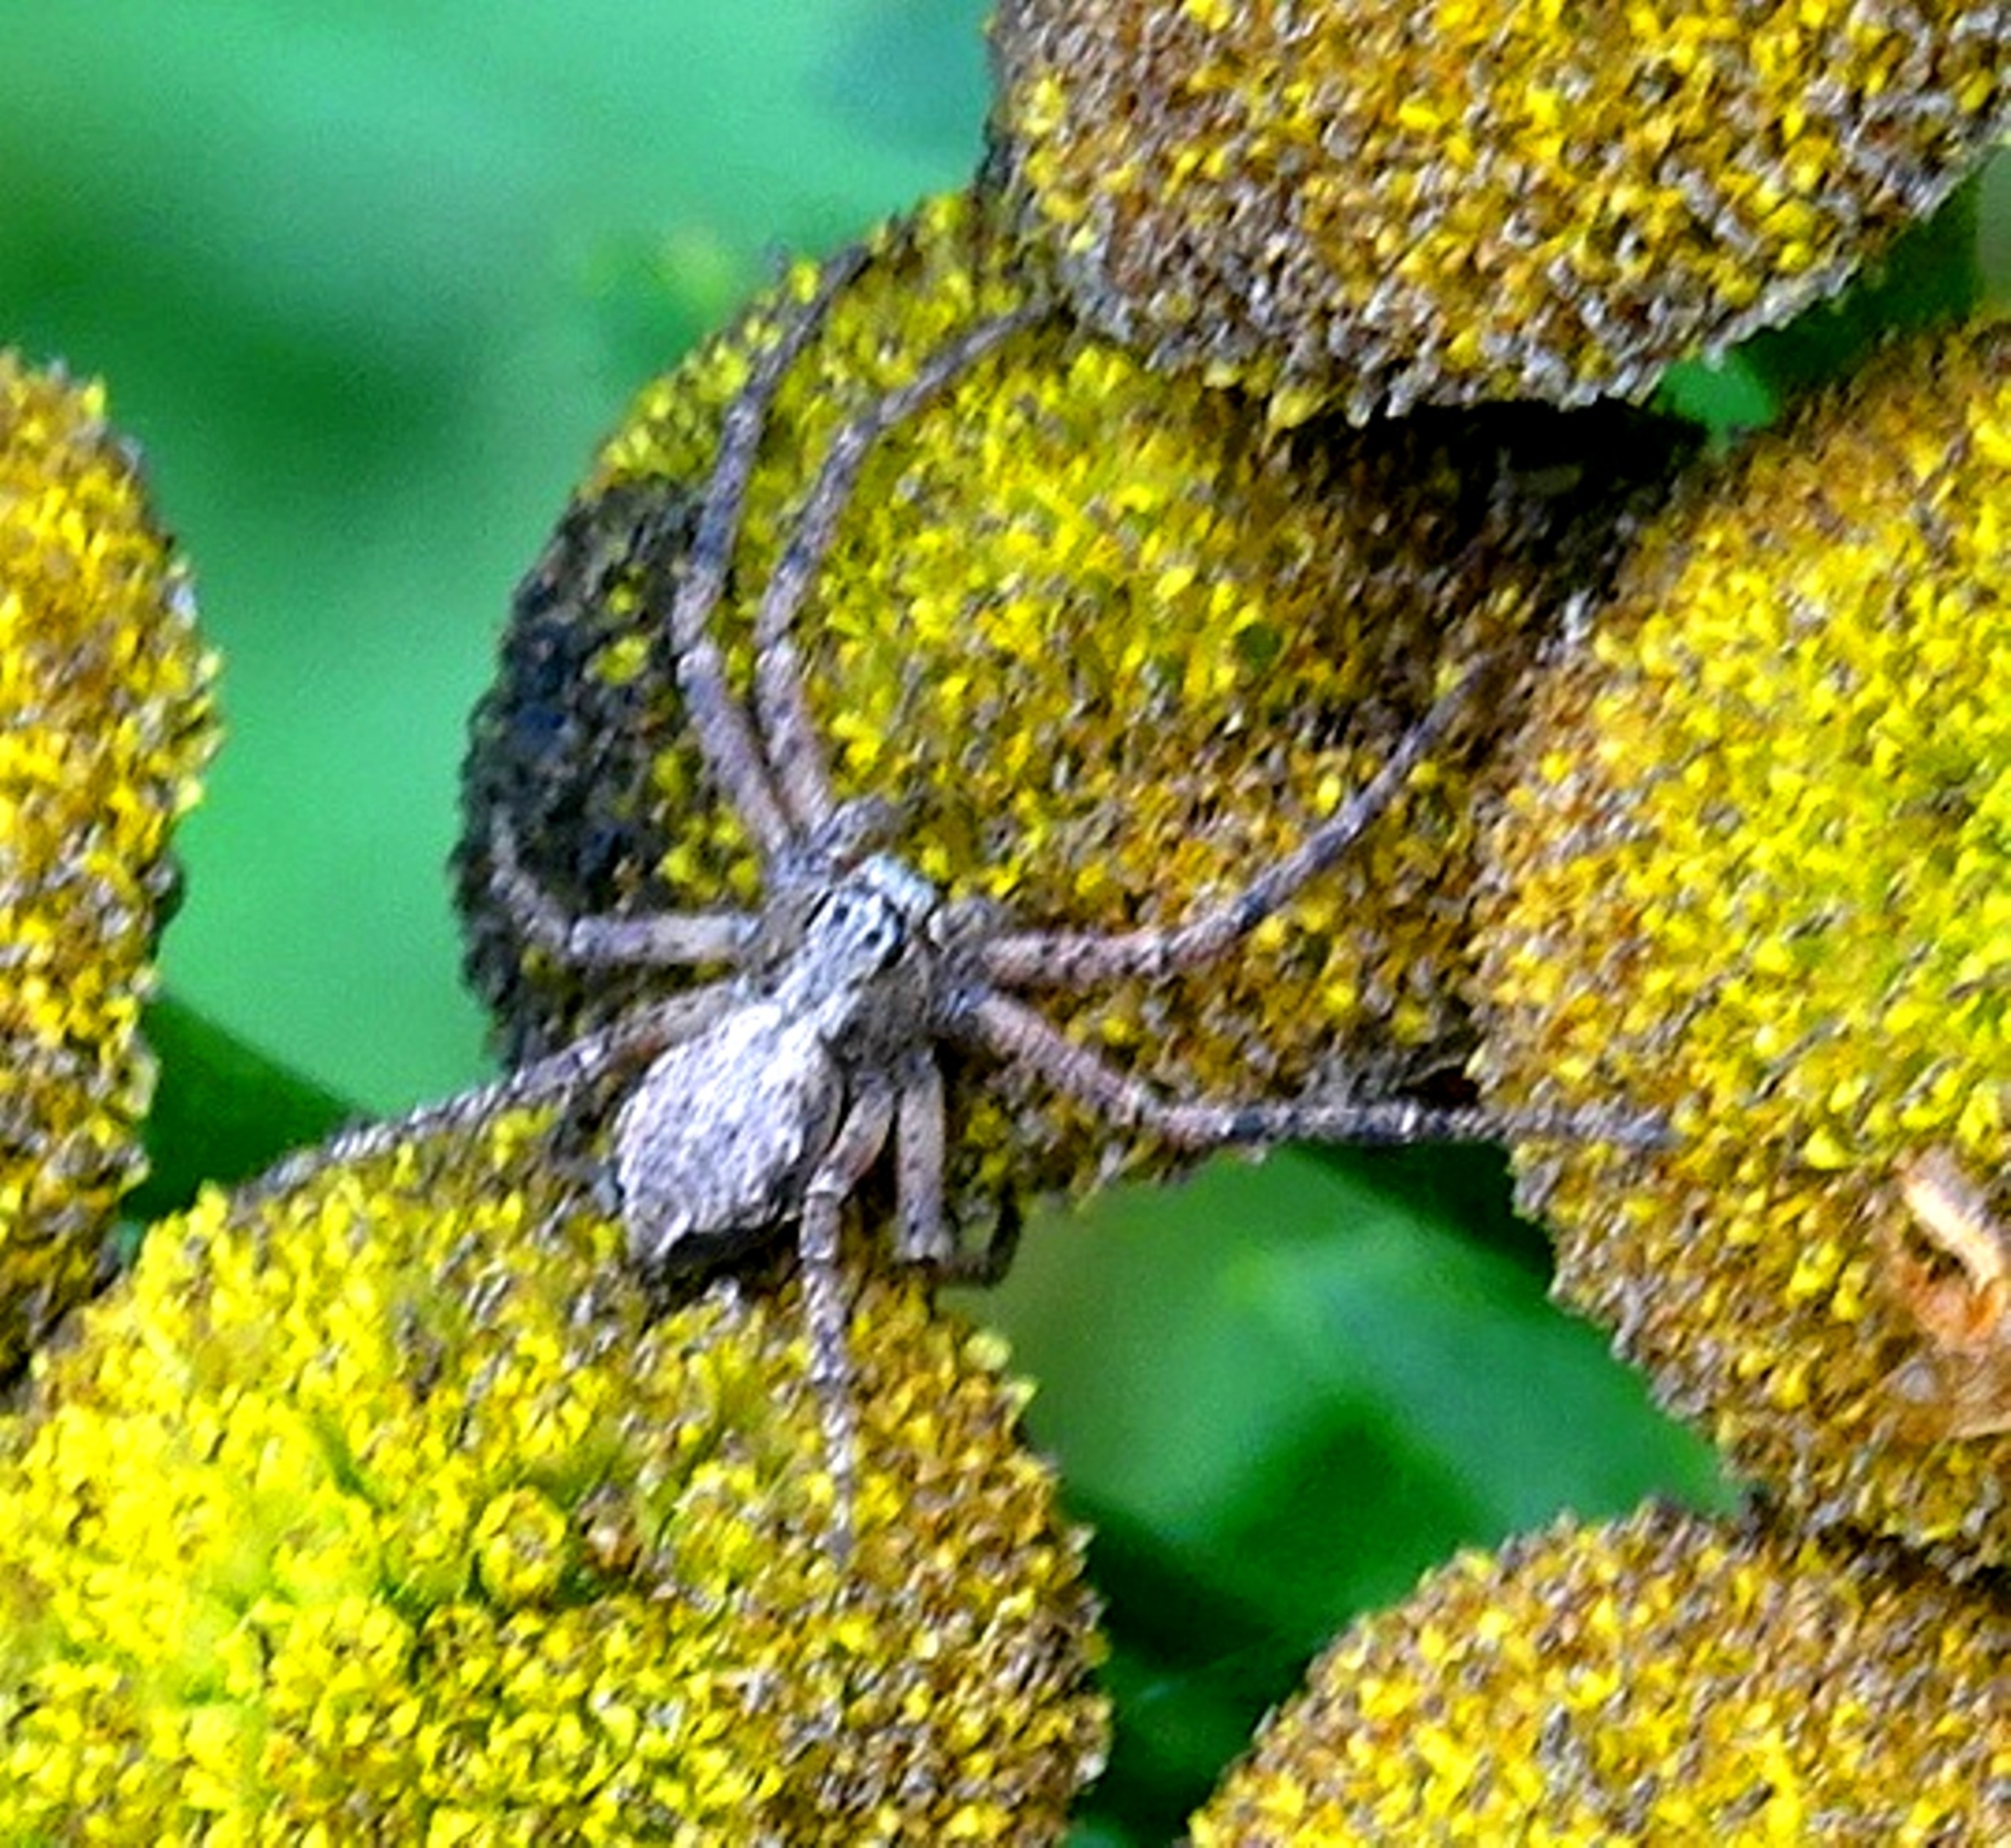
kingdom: Animalia
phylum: Arthropoda
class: Arachnida
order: Araneae
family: Philodromidae
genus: Philodromus
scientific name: Philodromus aureolus
